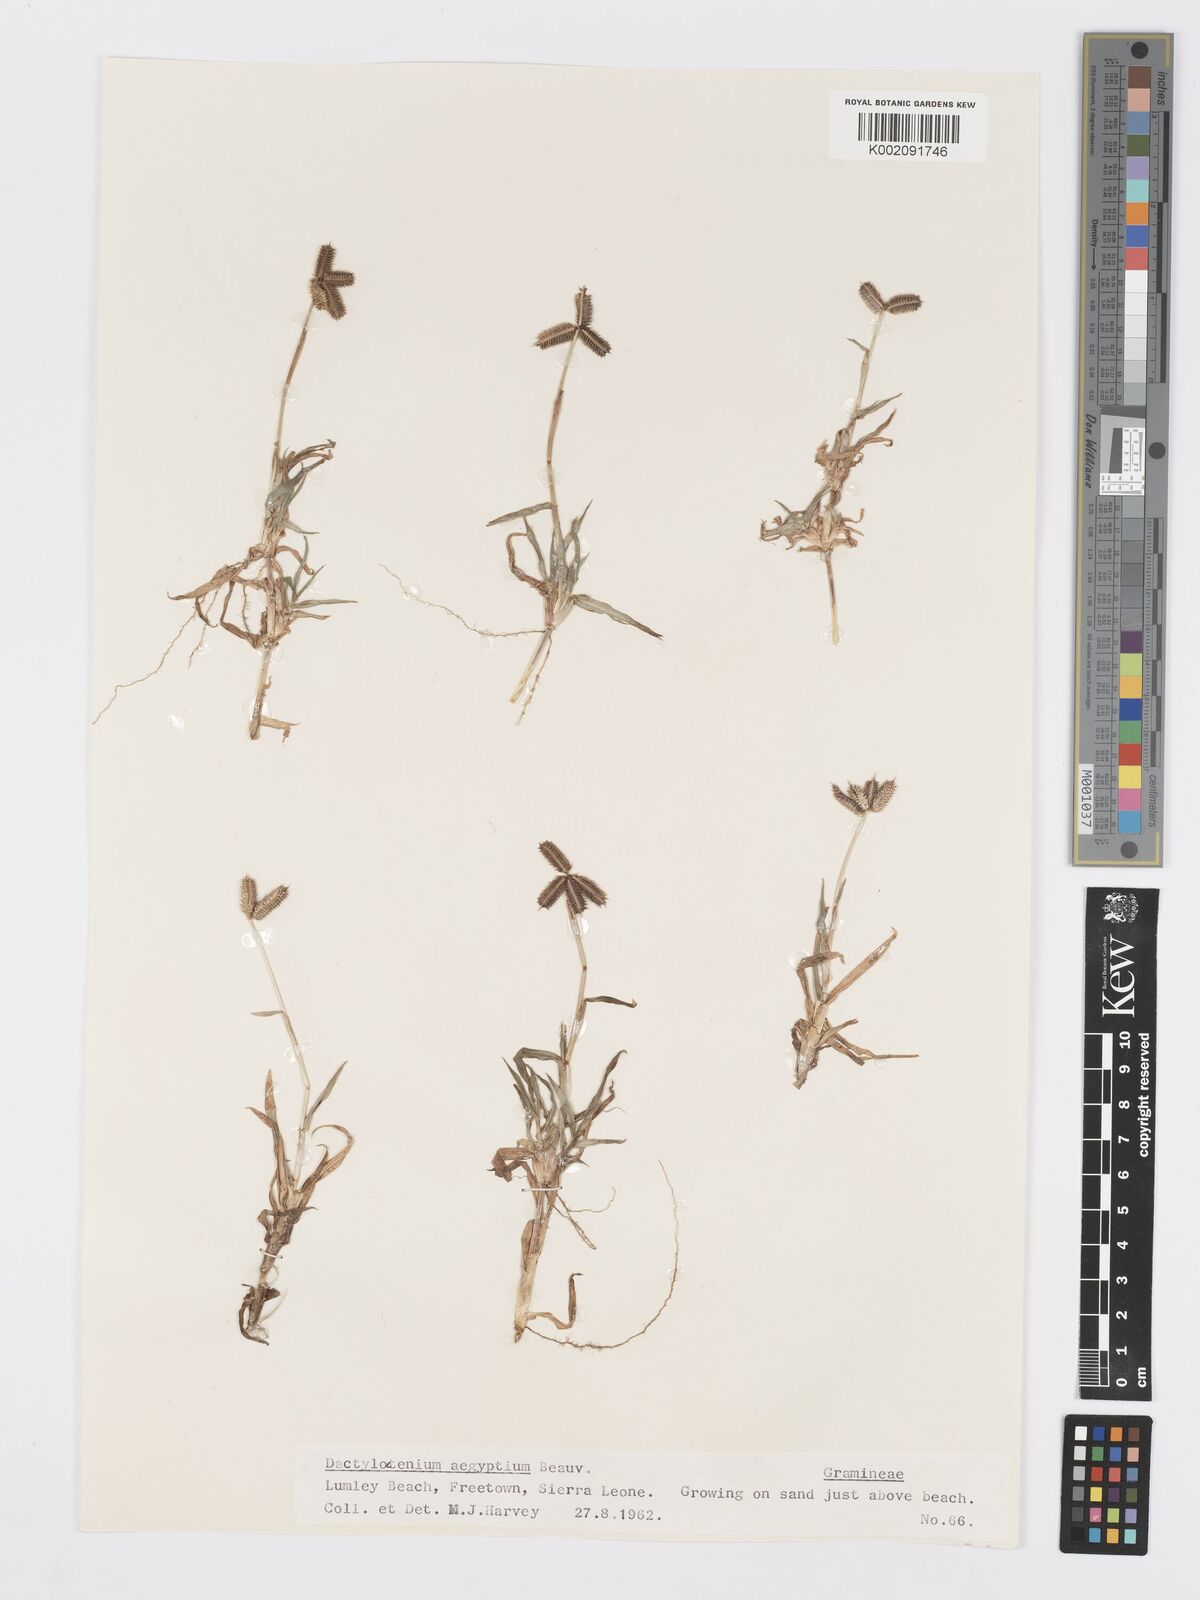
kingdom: Plantae
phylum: Tracheophyta
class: Liliopsida
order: Poales
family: Poaceae
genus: Dactyloctenium
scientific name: Dactyloctenium aegyptium
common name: Egyptian grass
